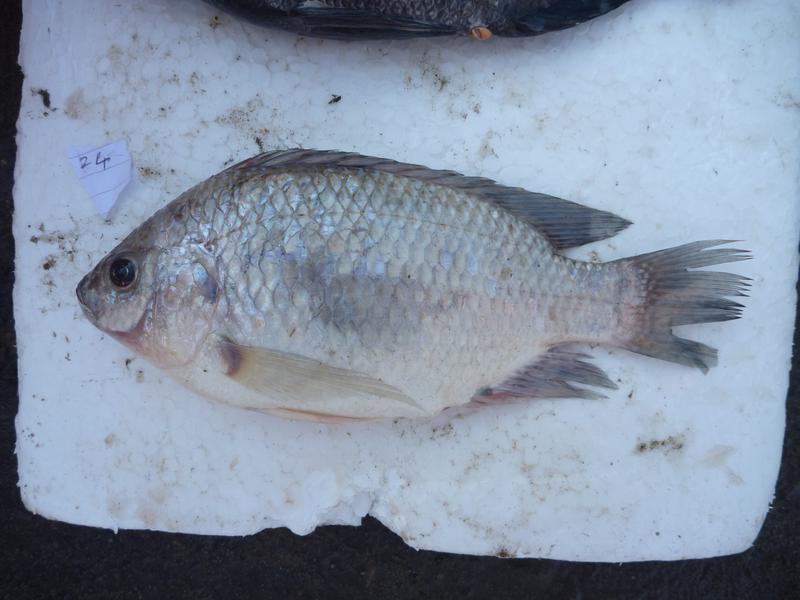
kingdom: Animalia
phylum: Chordata
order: Perciformes
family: Cichlidae
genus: Oreochromis
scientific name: Oreochromis rukwaensis
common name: Lake rukwa tilapia
